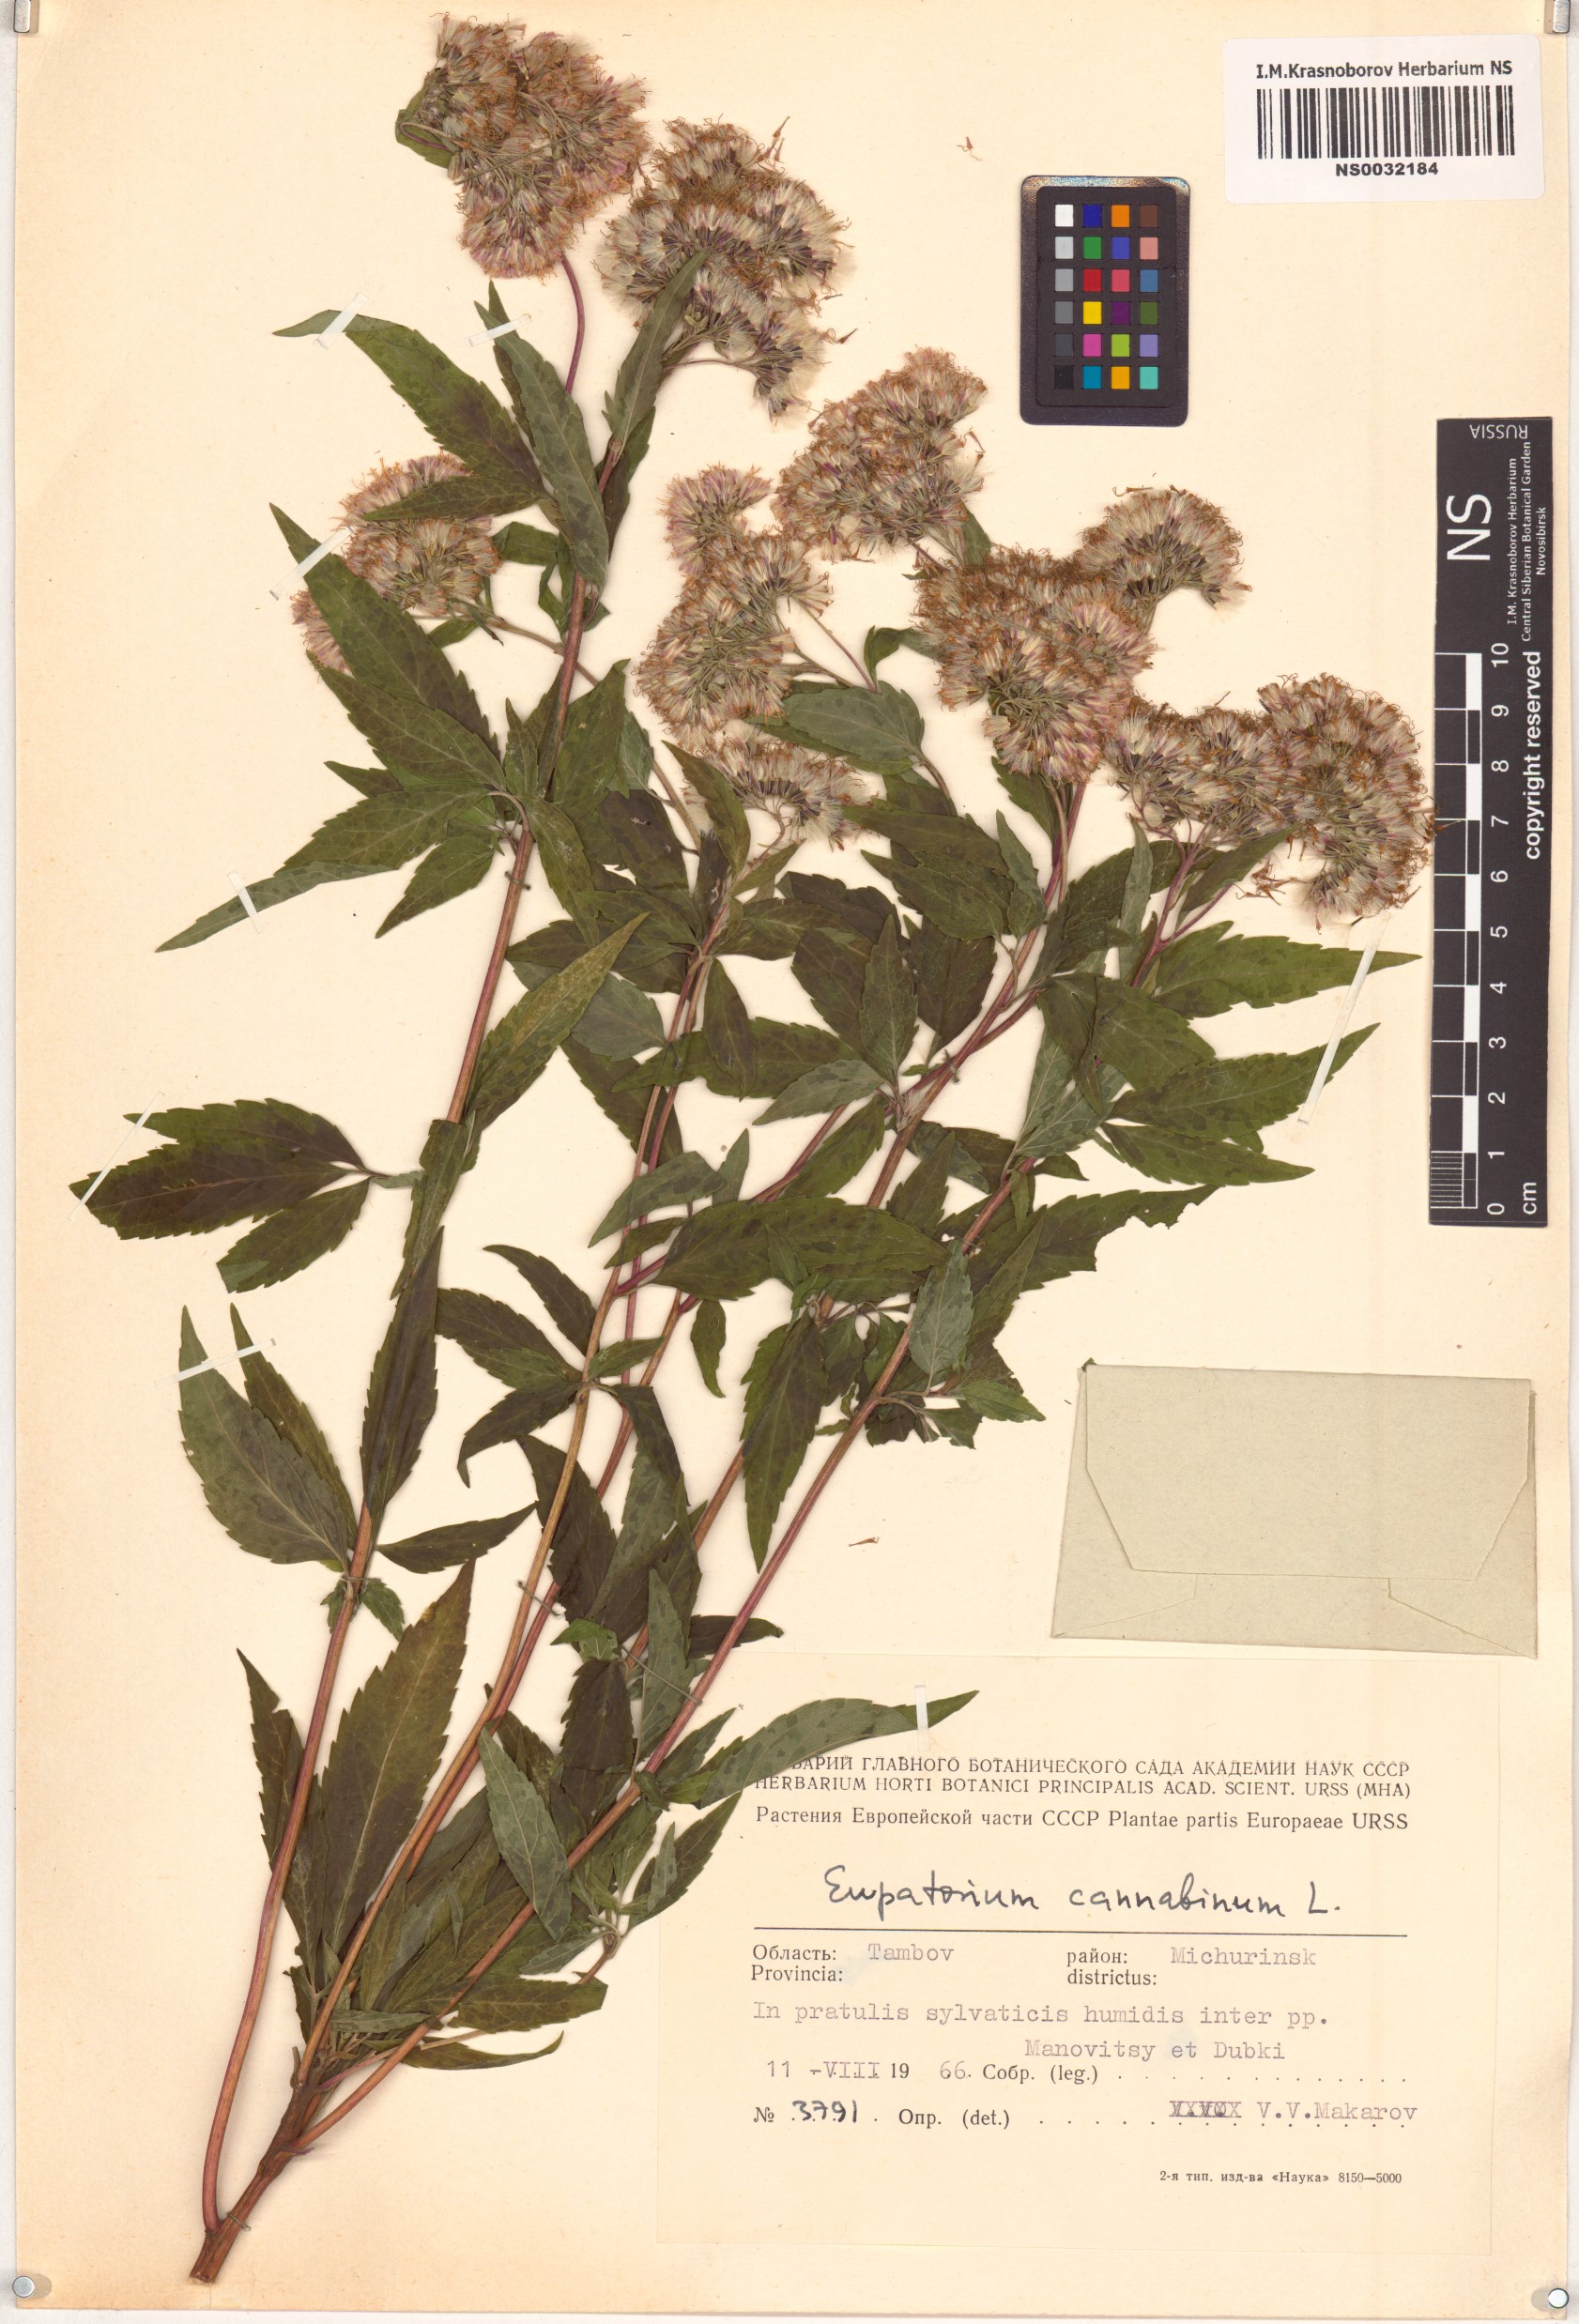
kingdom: Plantae
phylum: Tracheophyta
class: Magnoliopsida
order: Asterales
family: Asteraceae
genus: Eupatorium
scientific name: Eupatorium cannabinum
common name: Hemp-agrimony
